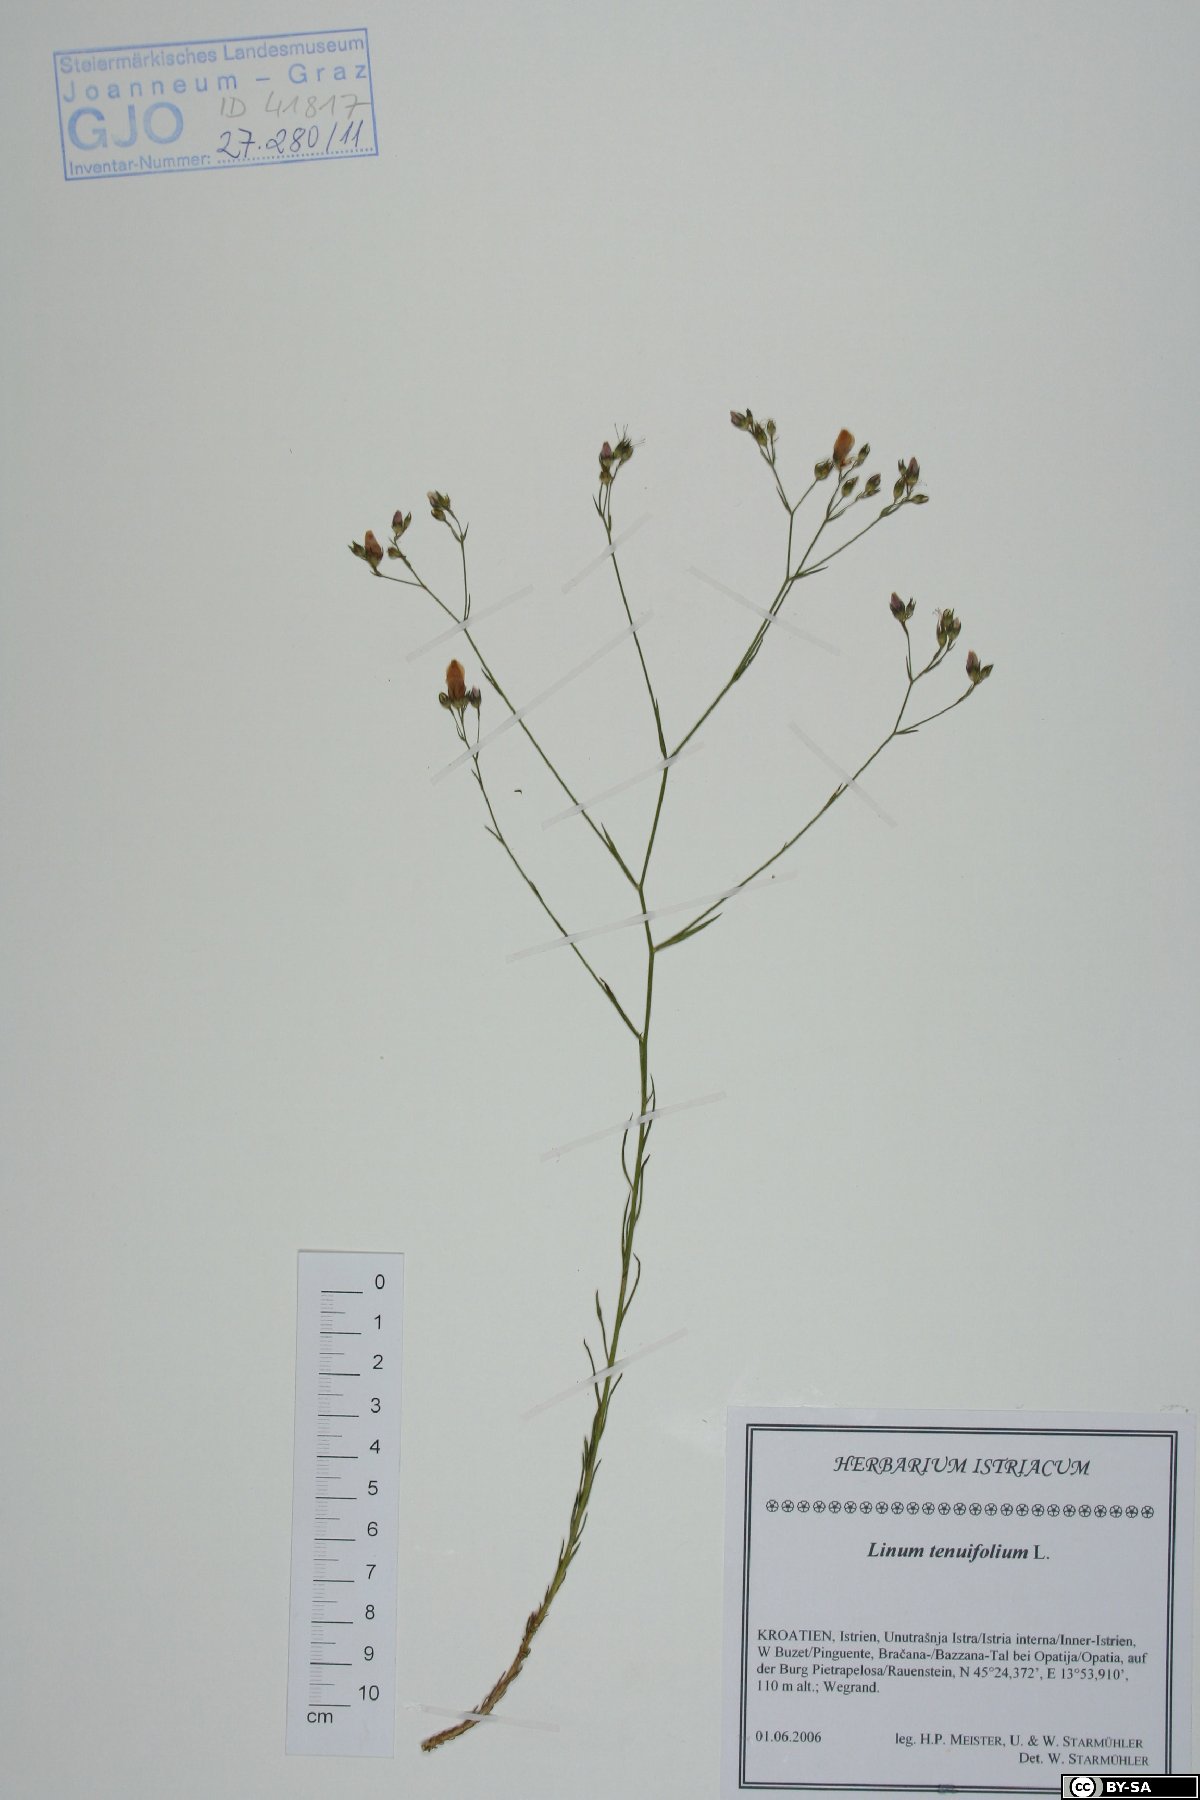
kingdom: Plantae
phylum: Tracheophyta
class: Magnoliopsida
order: Malpighiales
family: Linaceae
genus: Linum
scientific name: Linum tenuifolium
